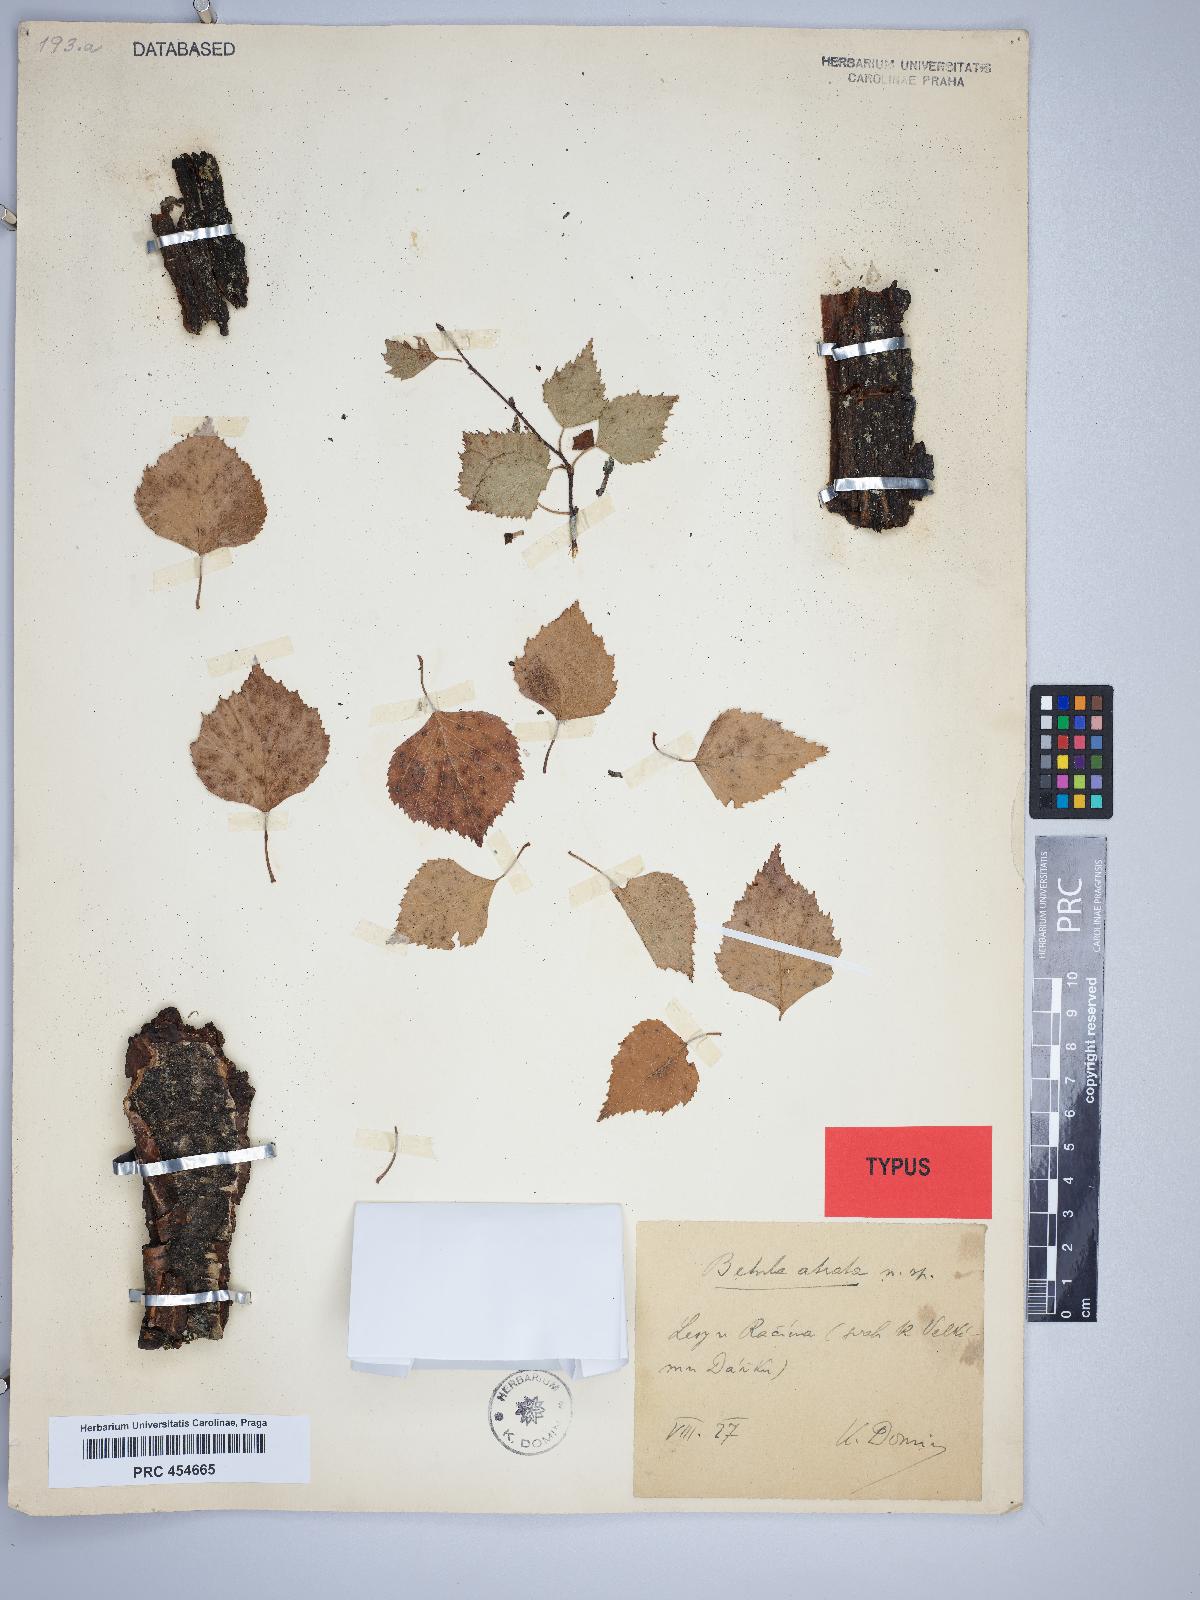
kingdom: Plantae
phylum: Tracheophyta
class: Magnoliopsida
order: Fagales
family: Betulaceae
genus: Betula
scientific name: Betula aurata
